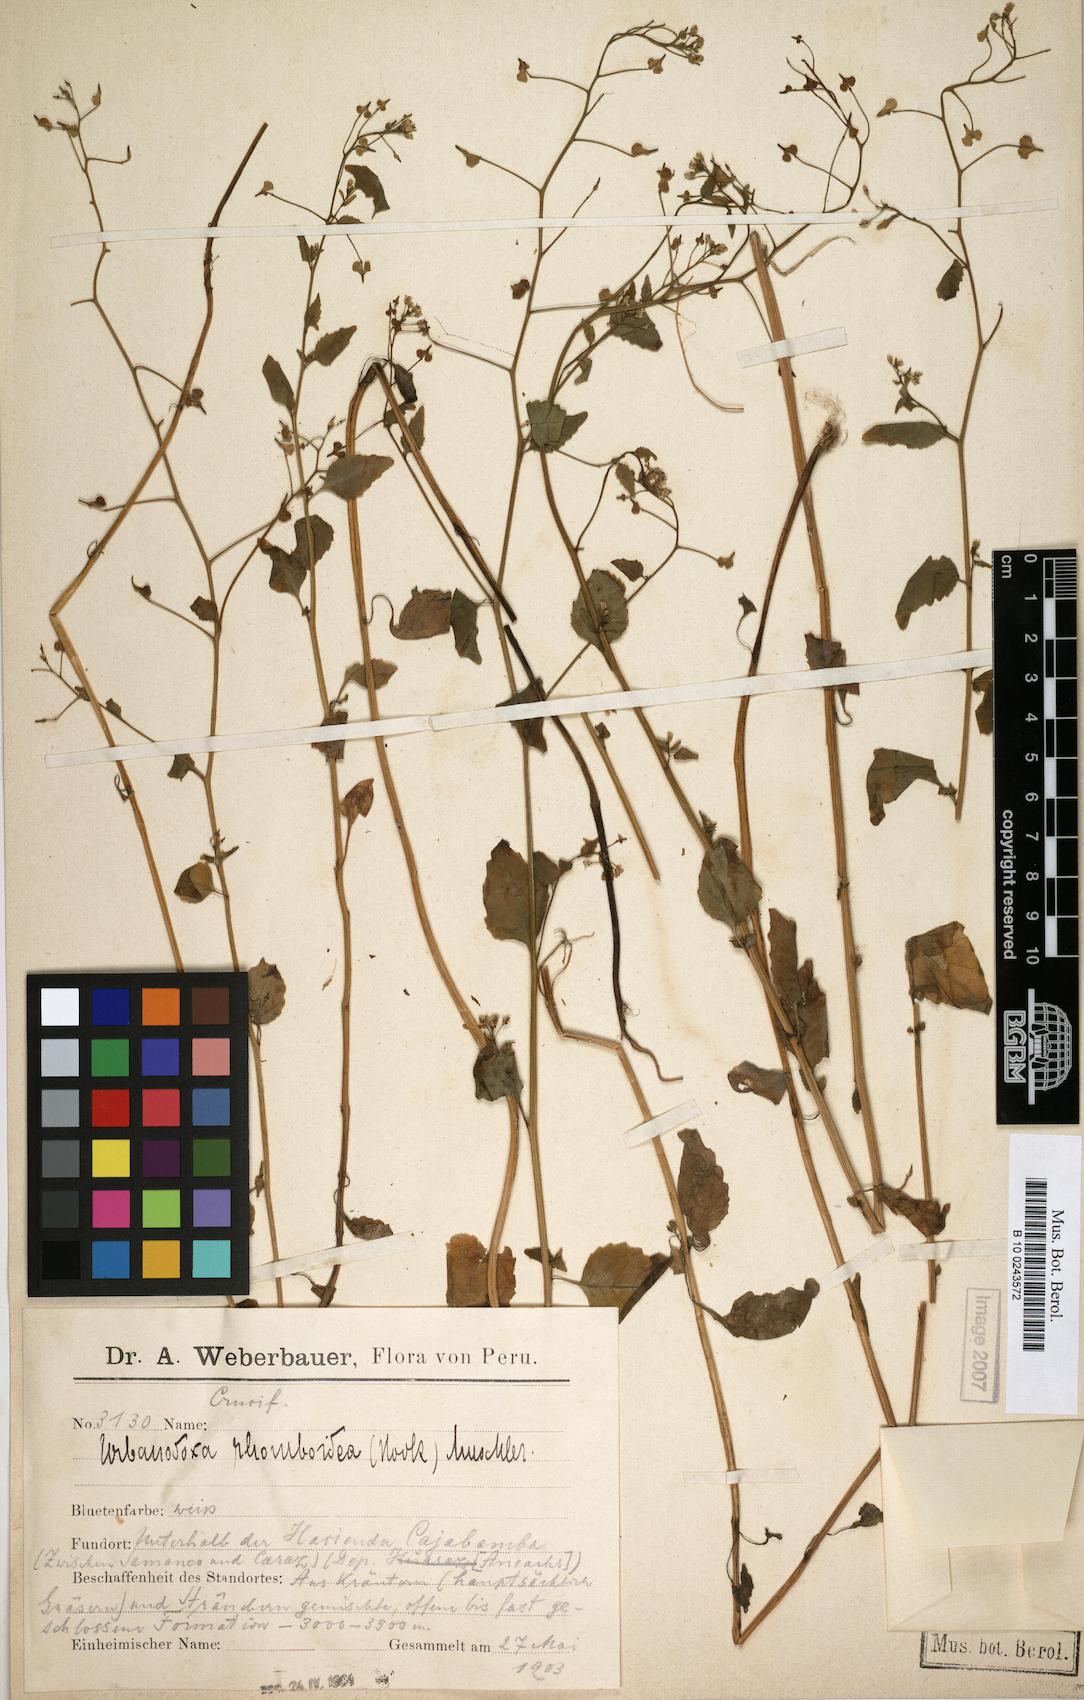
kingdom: Plantae
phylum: Tracheophyta
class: Magnoliopsida
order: Brassicales
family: Brassicaceae
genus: Cremolobus
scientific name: Cremolobus rhomboideus
